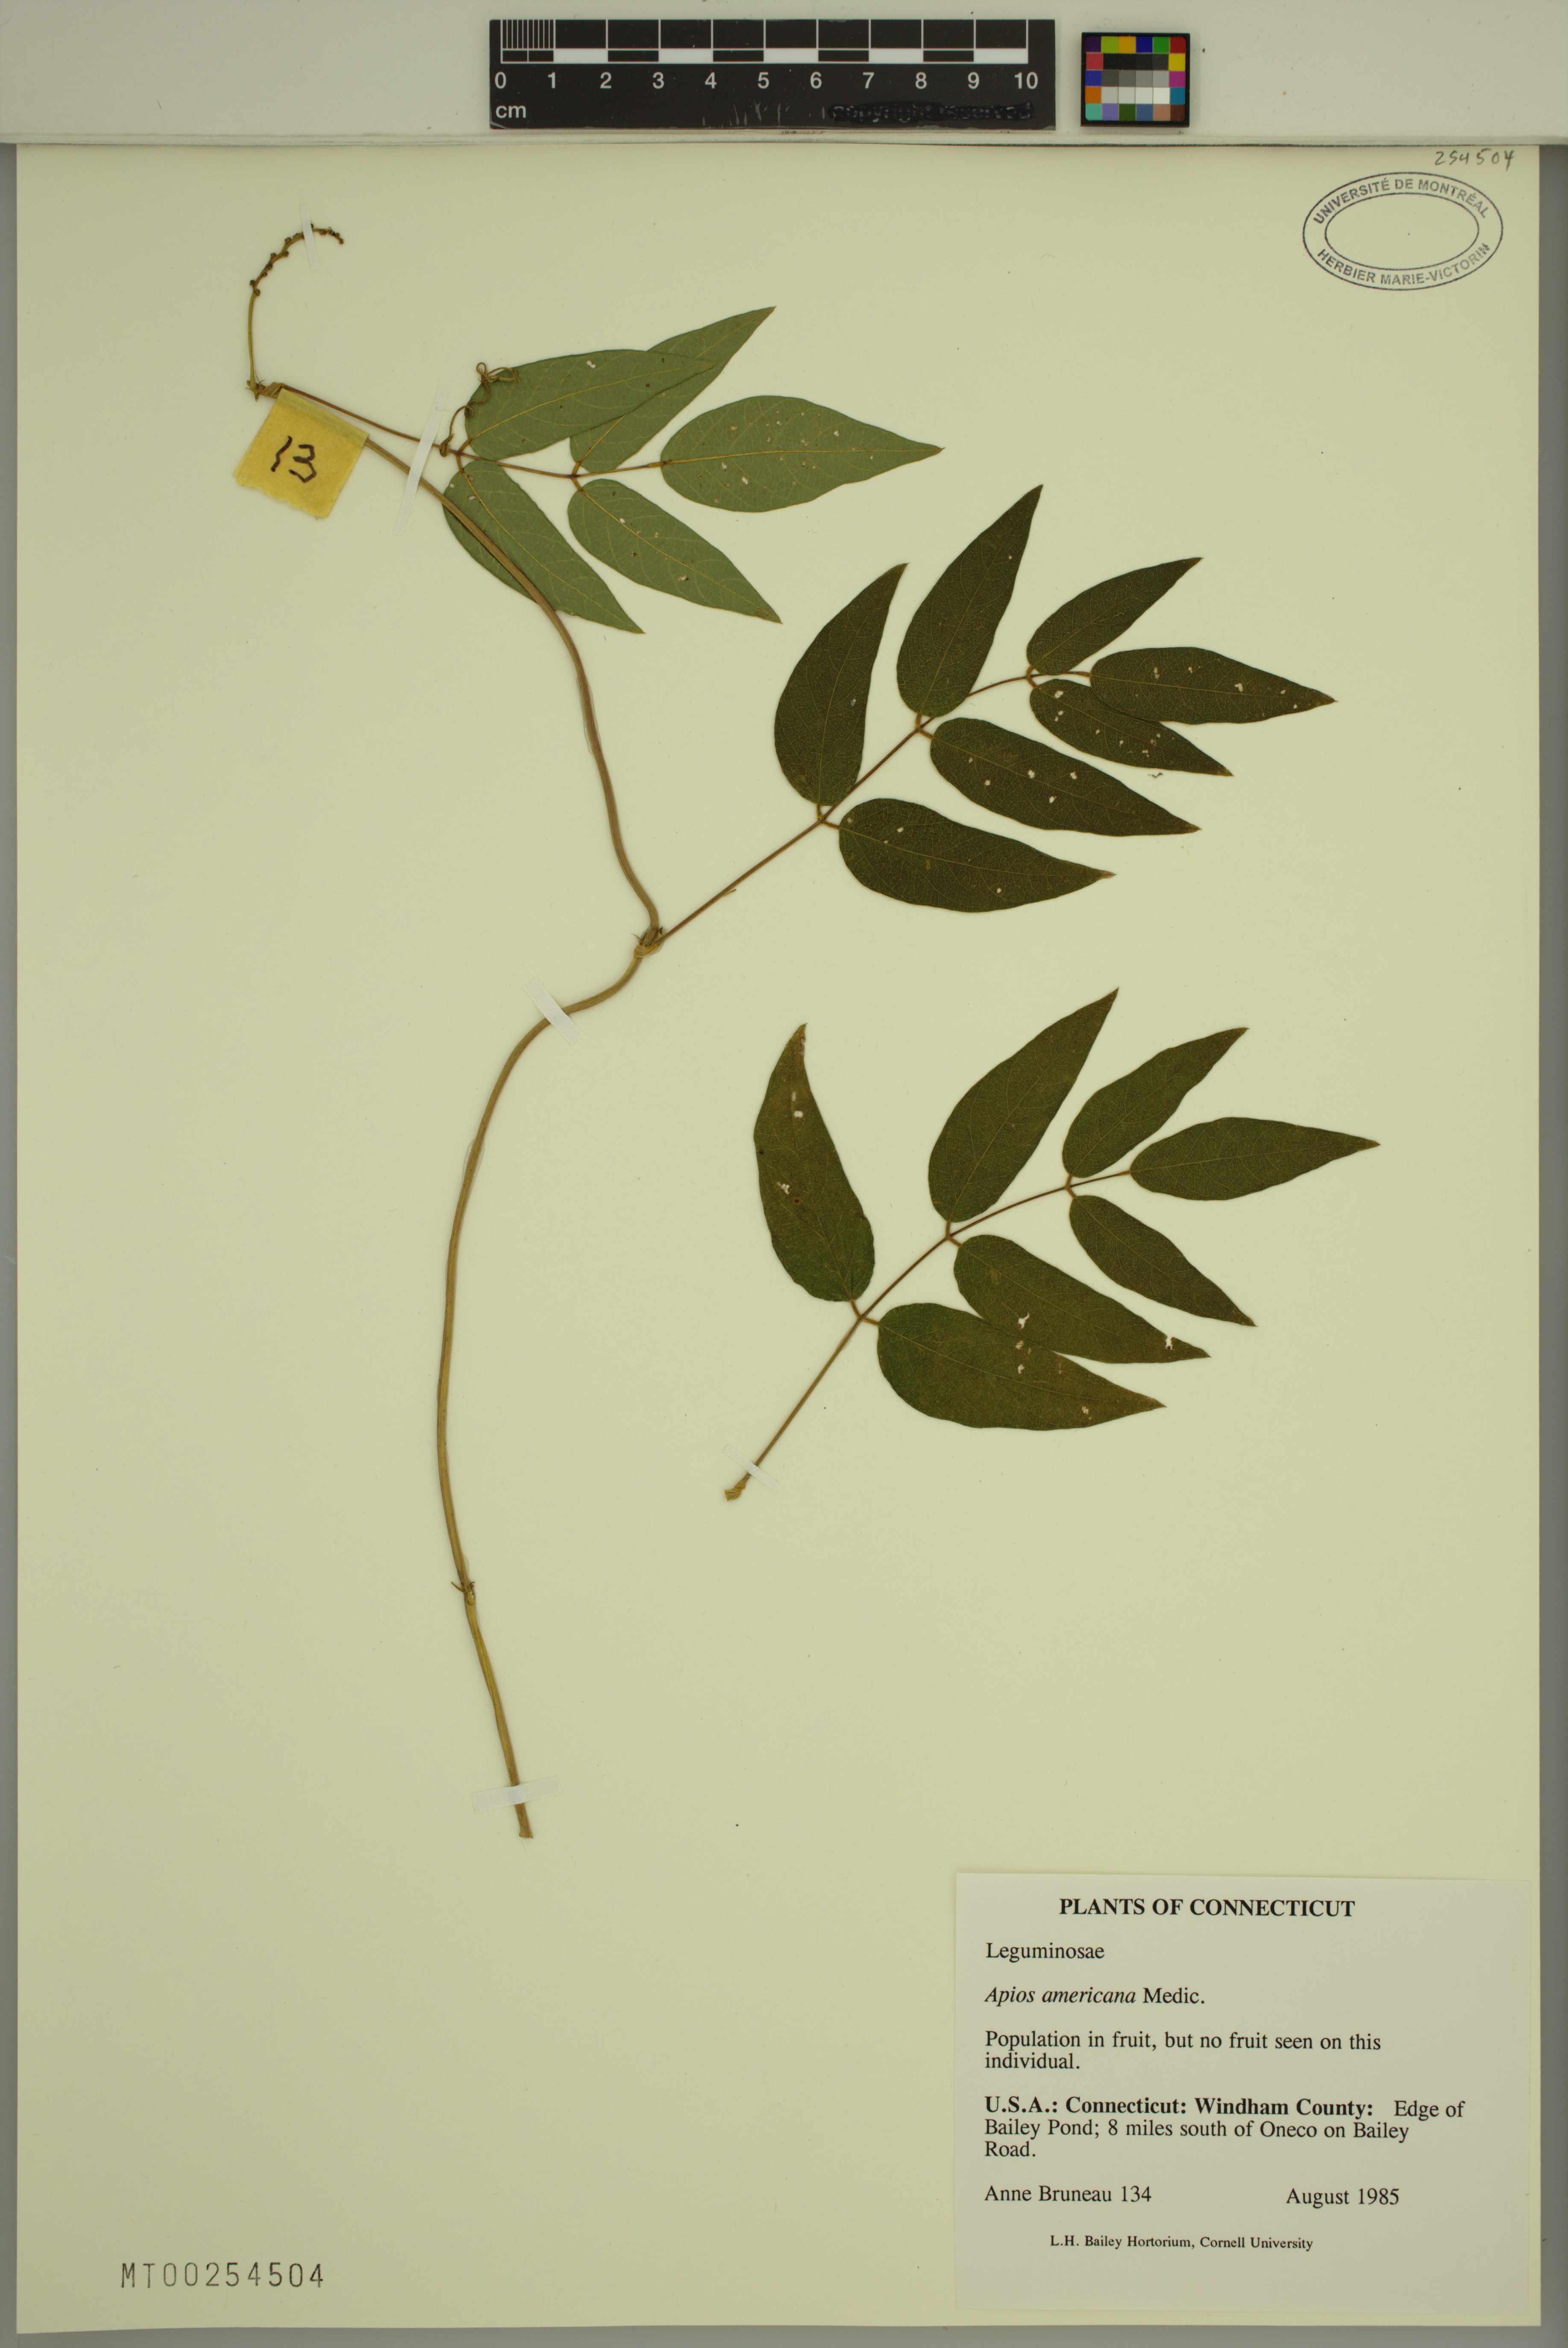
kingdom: Plantae
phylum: Tracheophyta
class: Magnoliopsida
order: Fabales
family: Fabaceae
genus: Apios
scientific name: Apios americana
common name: American potato-bean
